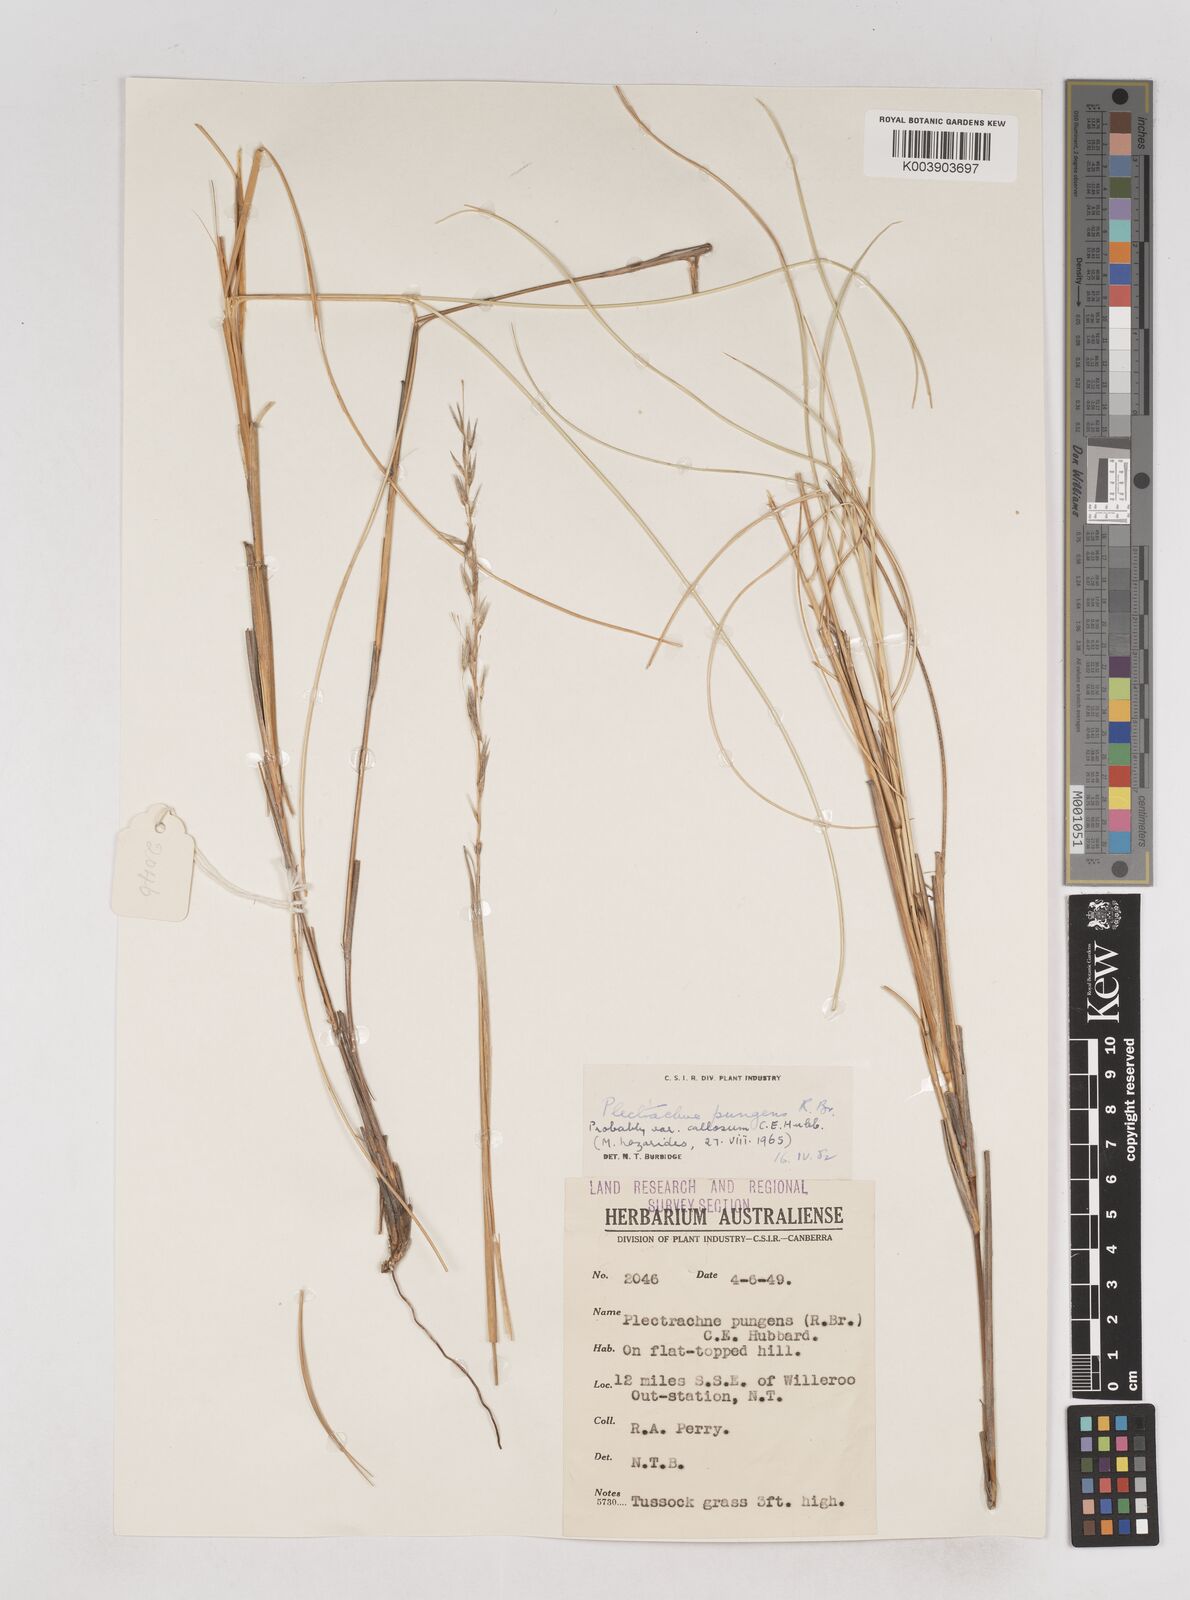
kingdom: Plantae
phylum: Tracheophyta
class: Liliopsida
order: Poales
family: Poaceae
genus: Triodia
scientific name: Triodia bitextura
